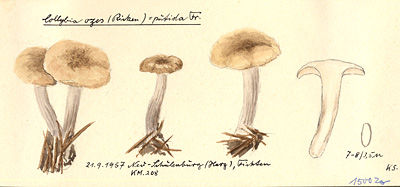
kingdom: Fungi
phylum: Basidiomycota
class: Agaricomycetes
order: Agaricales
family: Lyophyllaceae
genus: Tephrocybe
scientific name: Tephrocybe putida
